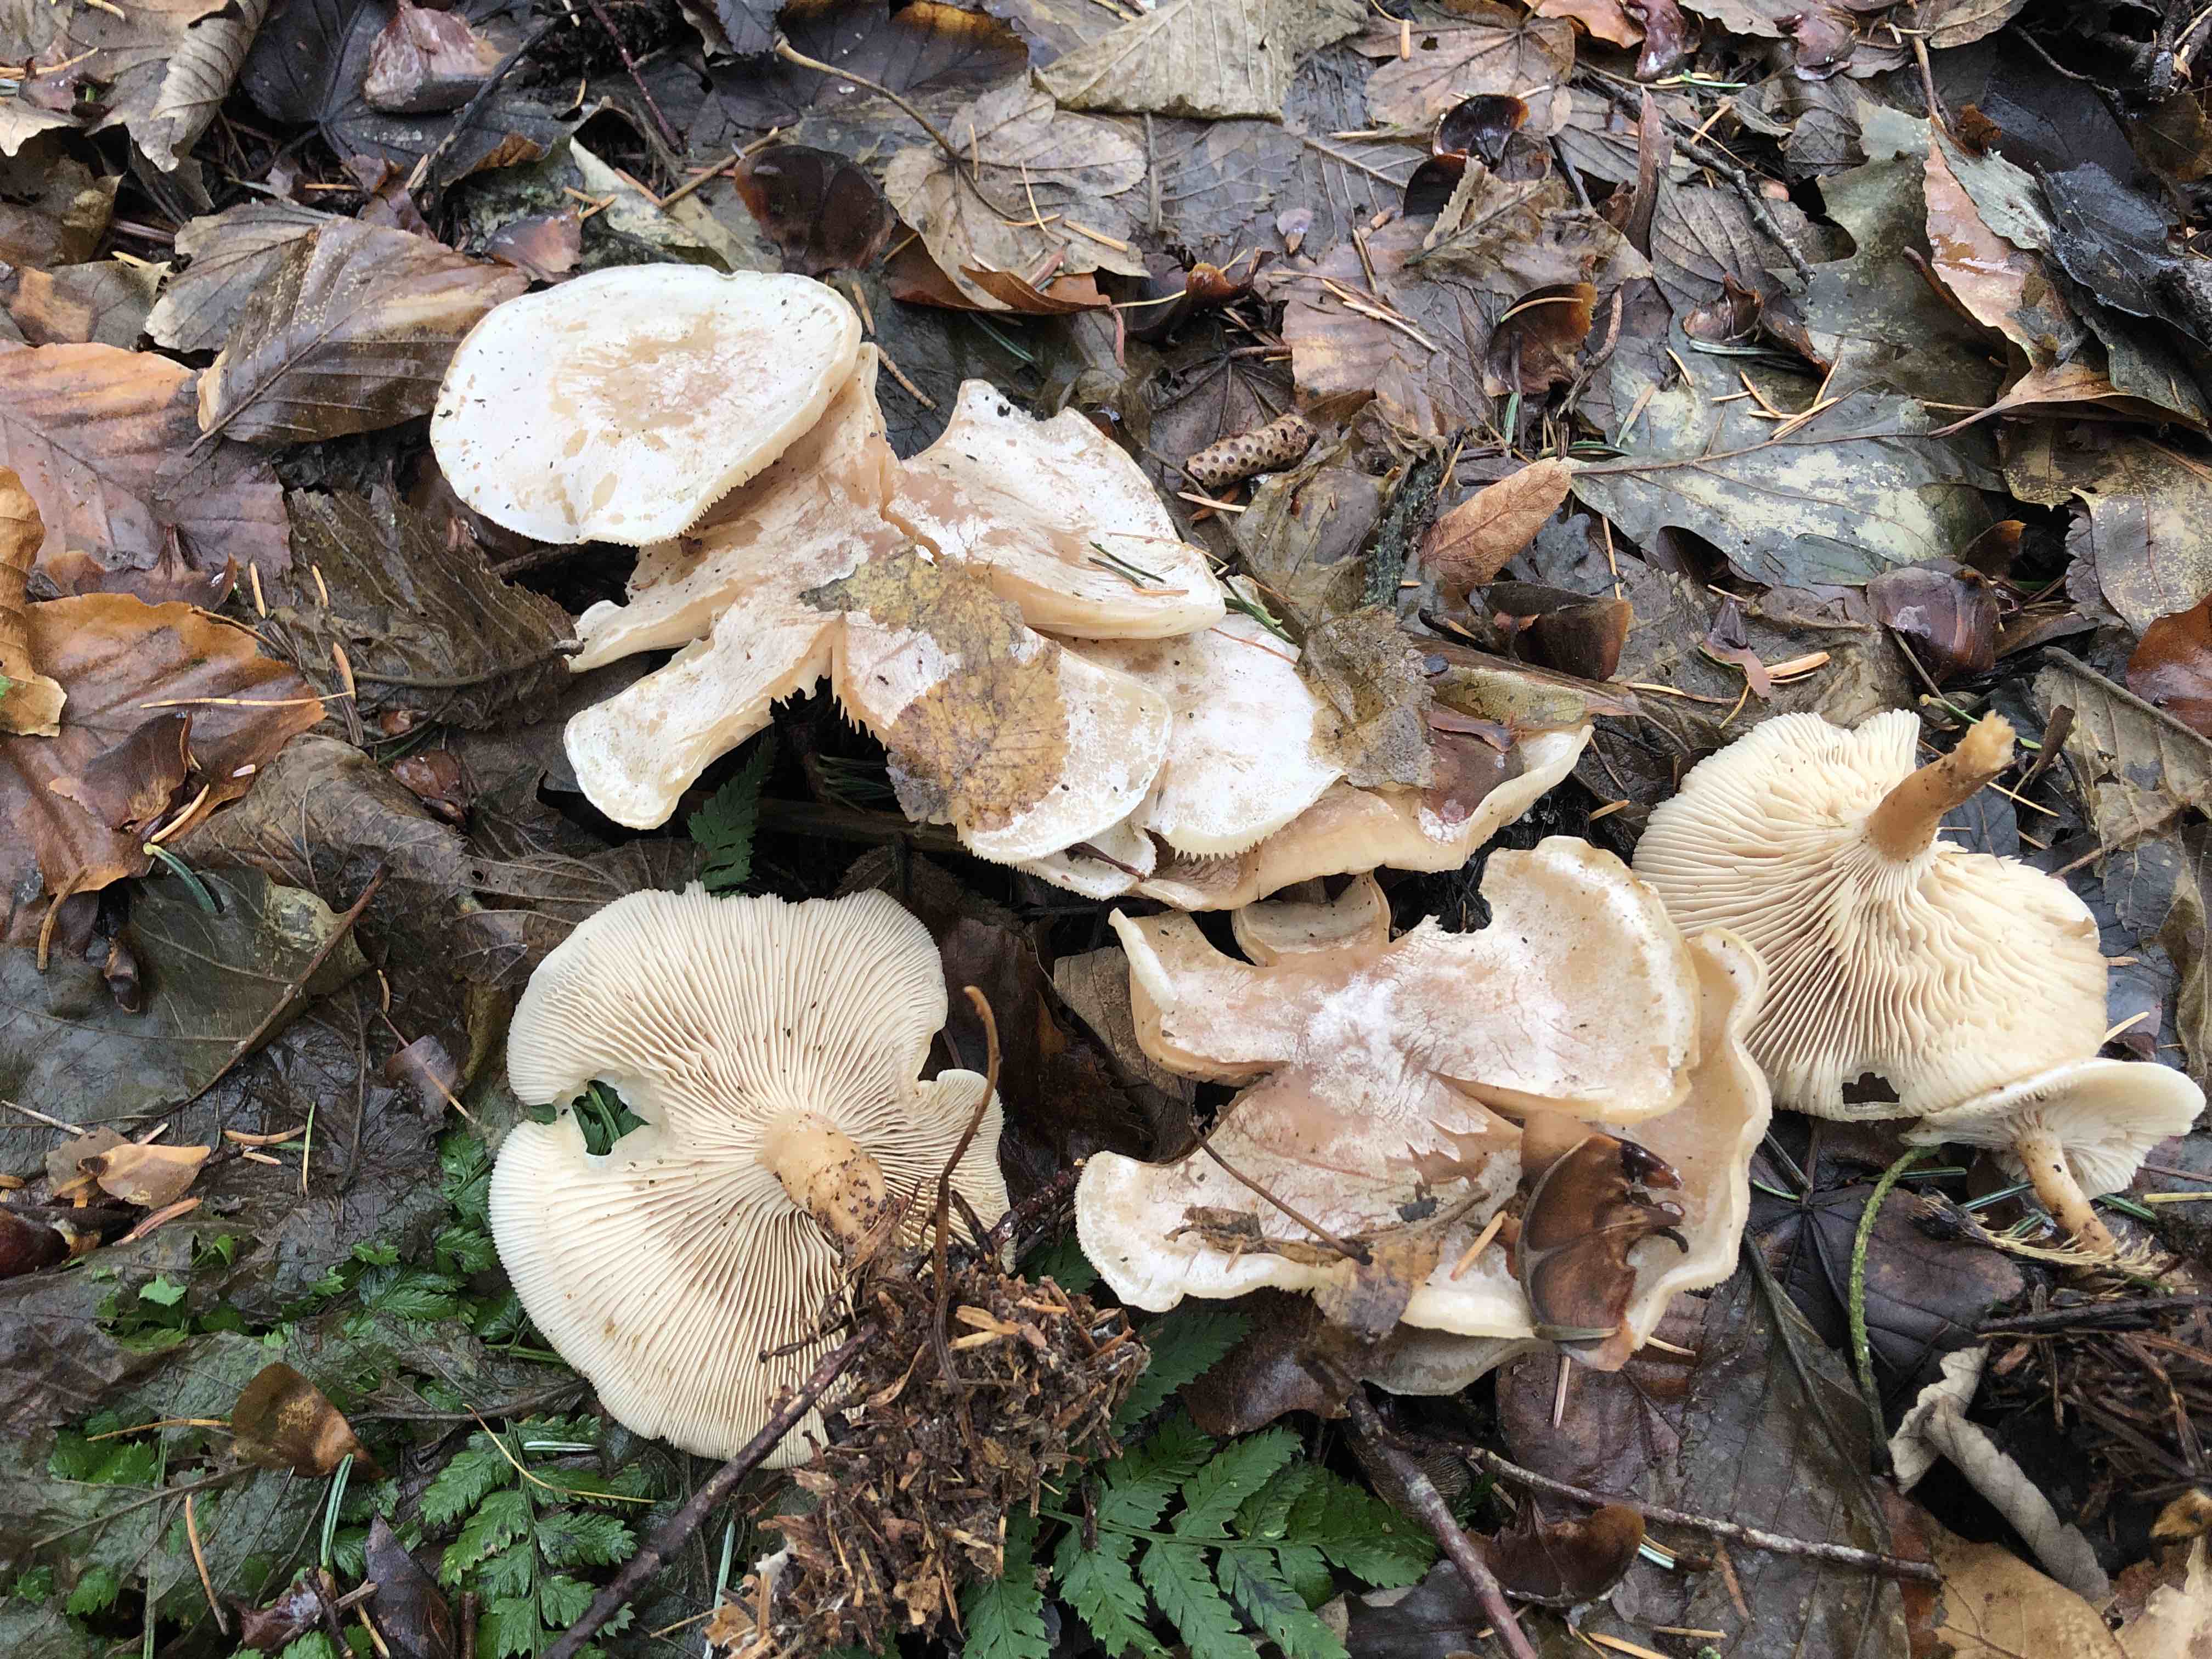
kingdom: Fungi
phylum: Basidiomycota
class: Agaricomycetes
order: Agaricales
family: Tricholomataceae
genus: Clitocybe
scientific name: Clitocybe phyllophila
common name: løv-tragthat
